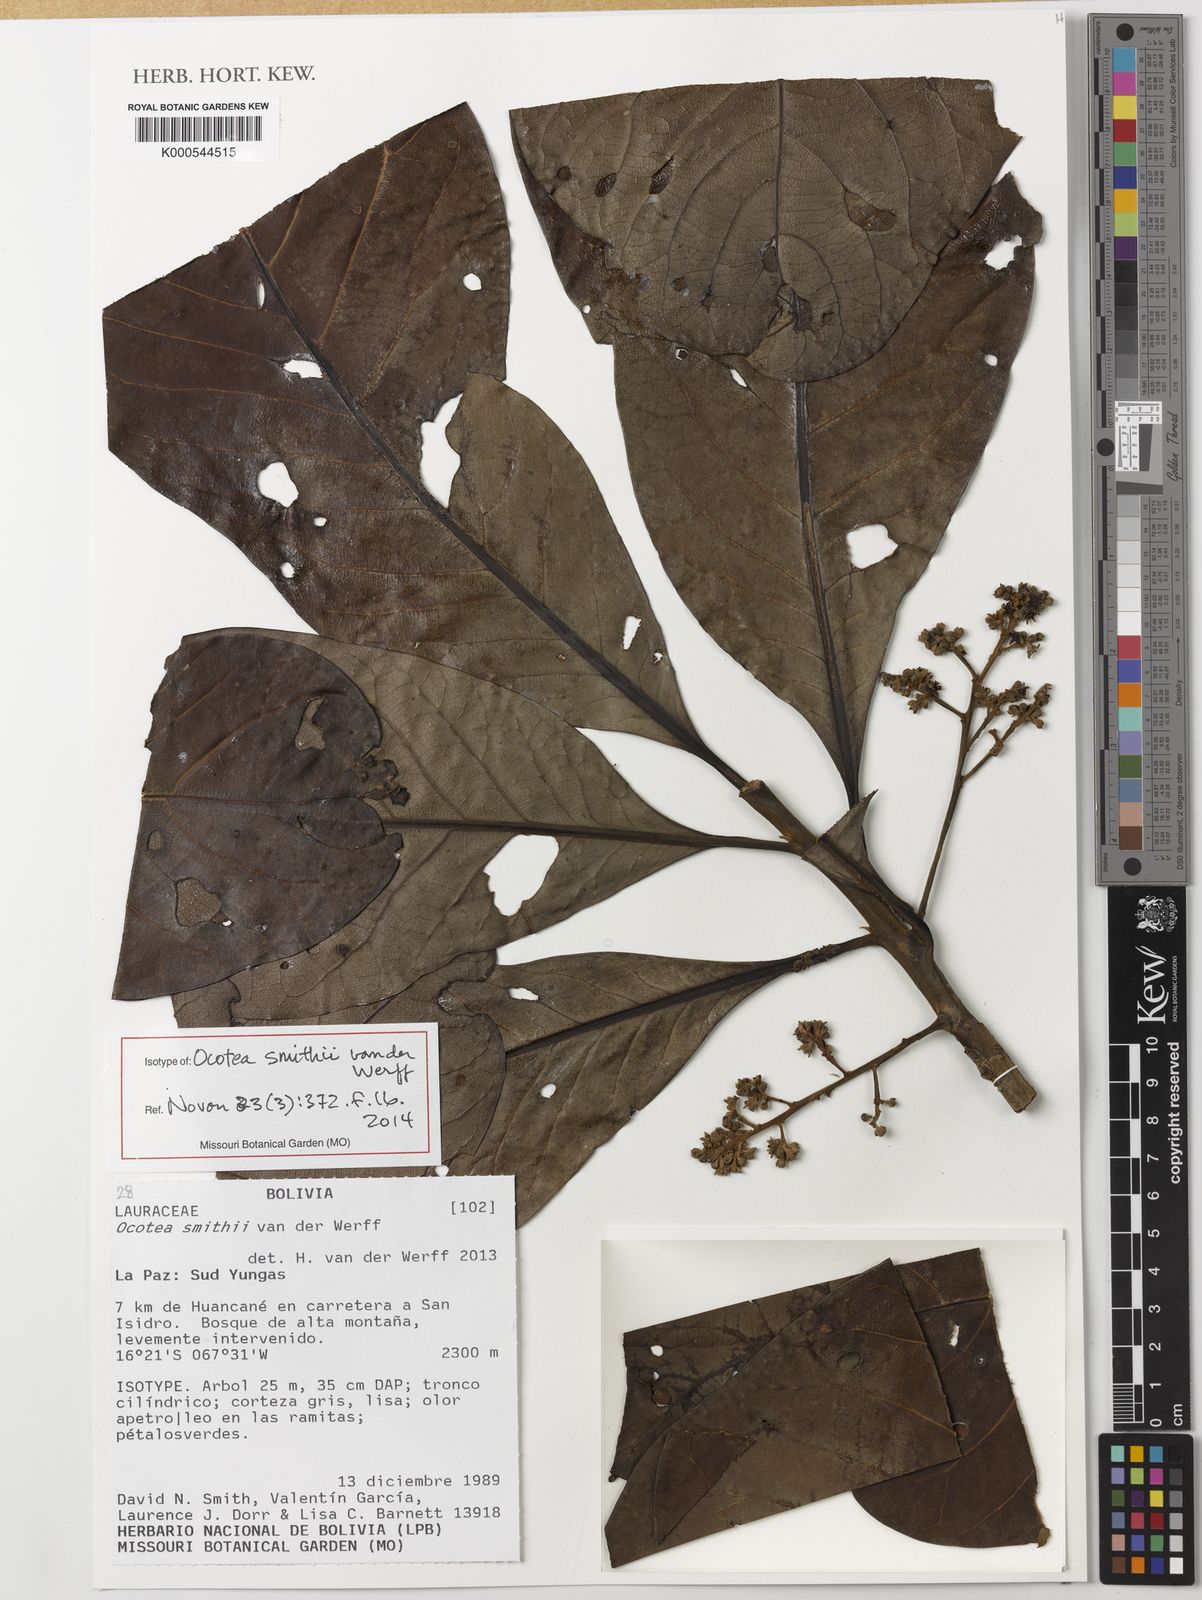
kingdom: Plantae
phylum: Tracheophyta
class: Magnoliopsida
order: Laurales
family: Lauraceae
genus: Ocotea
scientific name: Ocotea smithii
